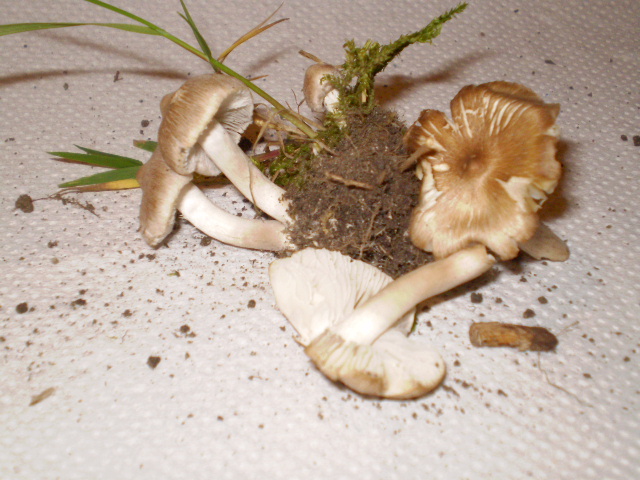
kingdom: Fungi
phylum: Basidiomycota
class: Agaricomycetes
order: Agaricales
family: Inocybaceae
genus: Inocybe
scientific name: Inocybe
